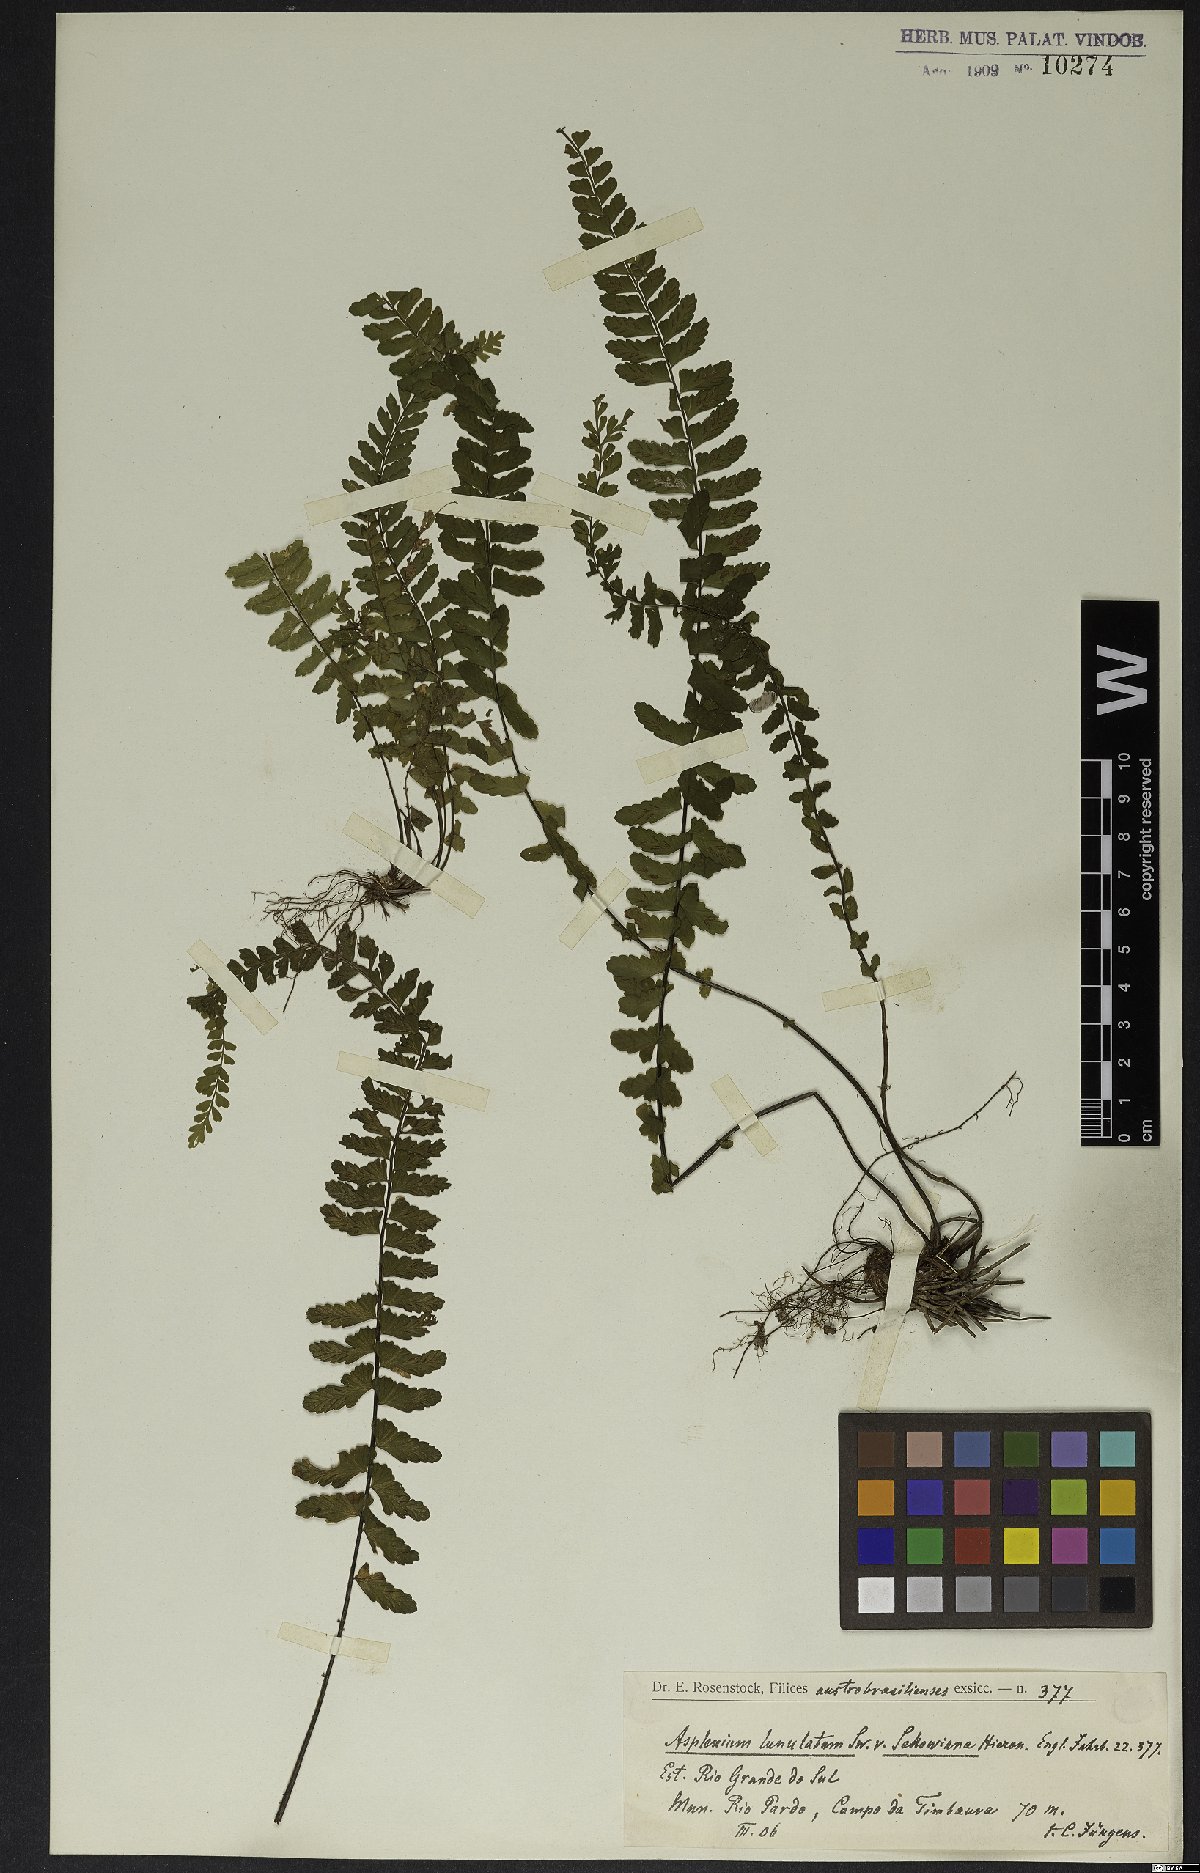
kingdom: Plantae
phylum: Tracheophyta
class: Polypodiopsida
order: Polypodiales
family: Aspleniaceae
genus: Asplenium
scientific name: Asplenium lunulatum
